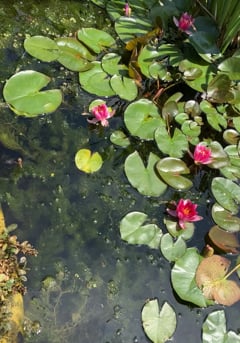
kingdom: Animalia
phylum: Arthropoda
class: Insecta
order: Odonata
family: Libellulidae
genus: Libellula
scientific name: Libellula depressa
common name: Broad-bodied chaser
